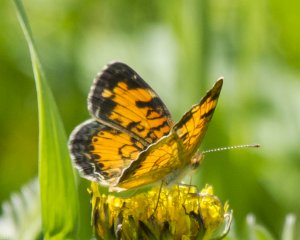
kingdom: Animalia
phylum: Arthropoda
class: Insecta
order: Lepidoptera
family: Nymphalidae
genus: Phyciodes
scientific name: Phyciodes tharos
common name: Northern Crescent
